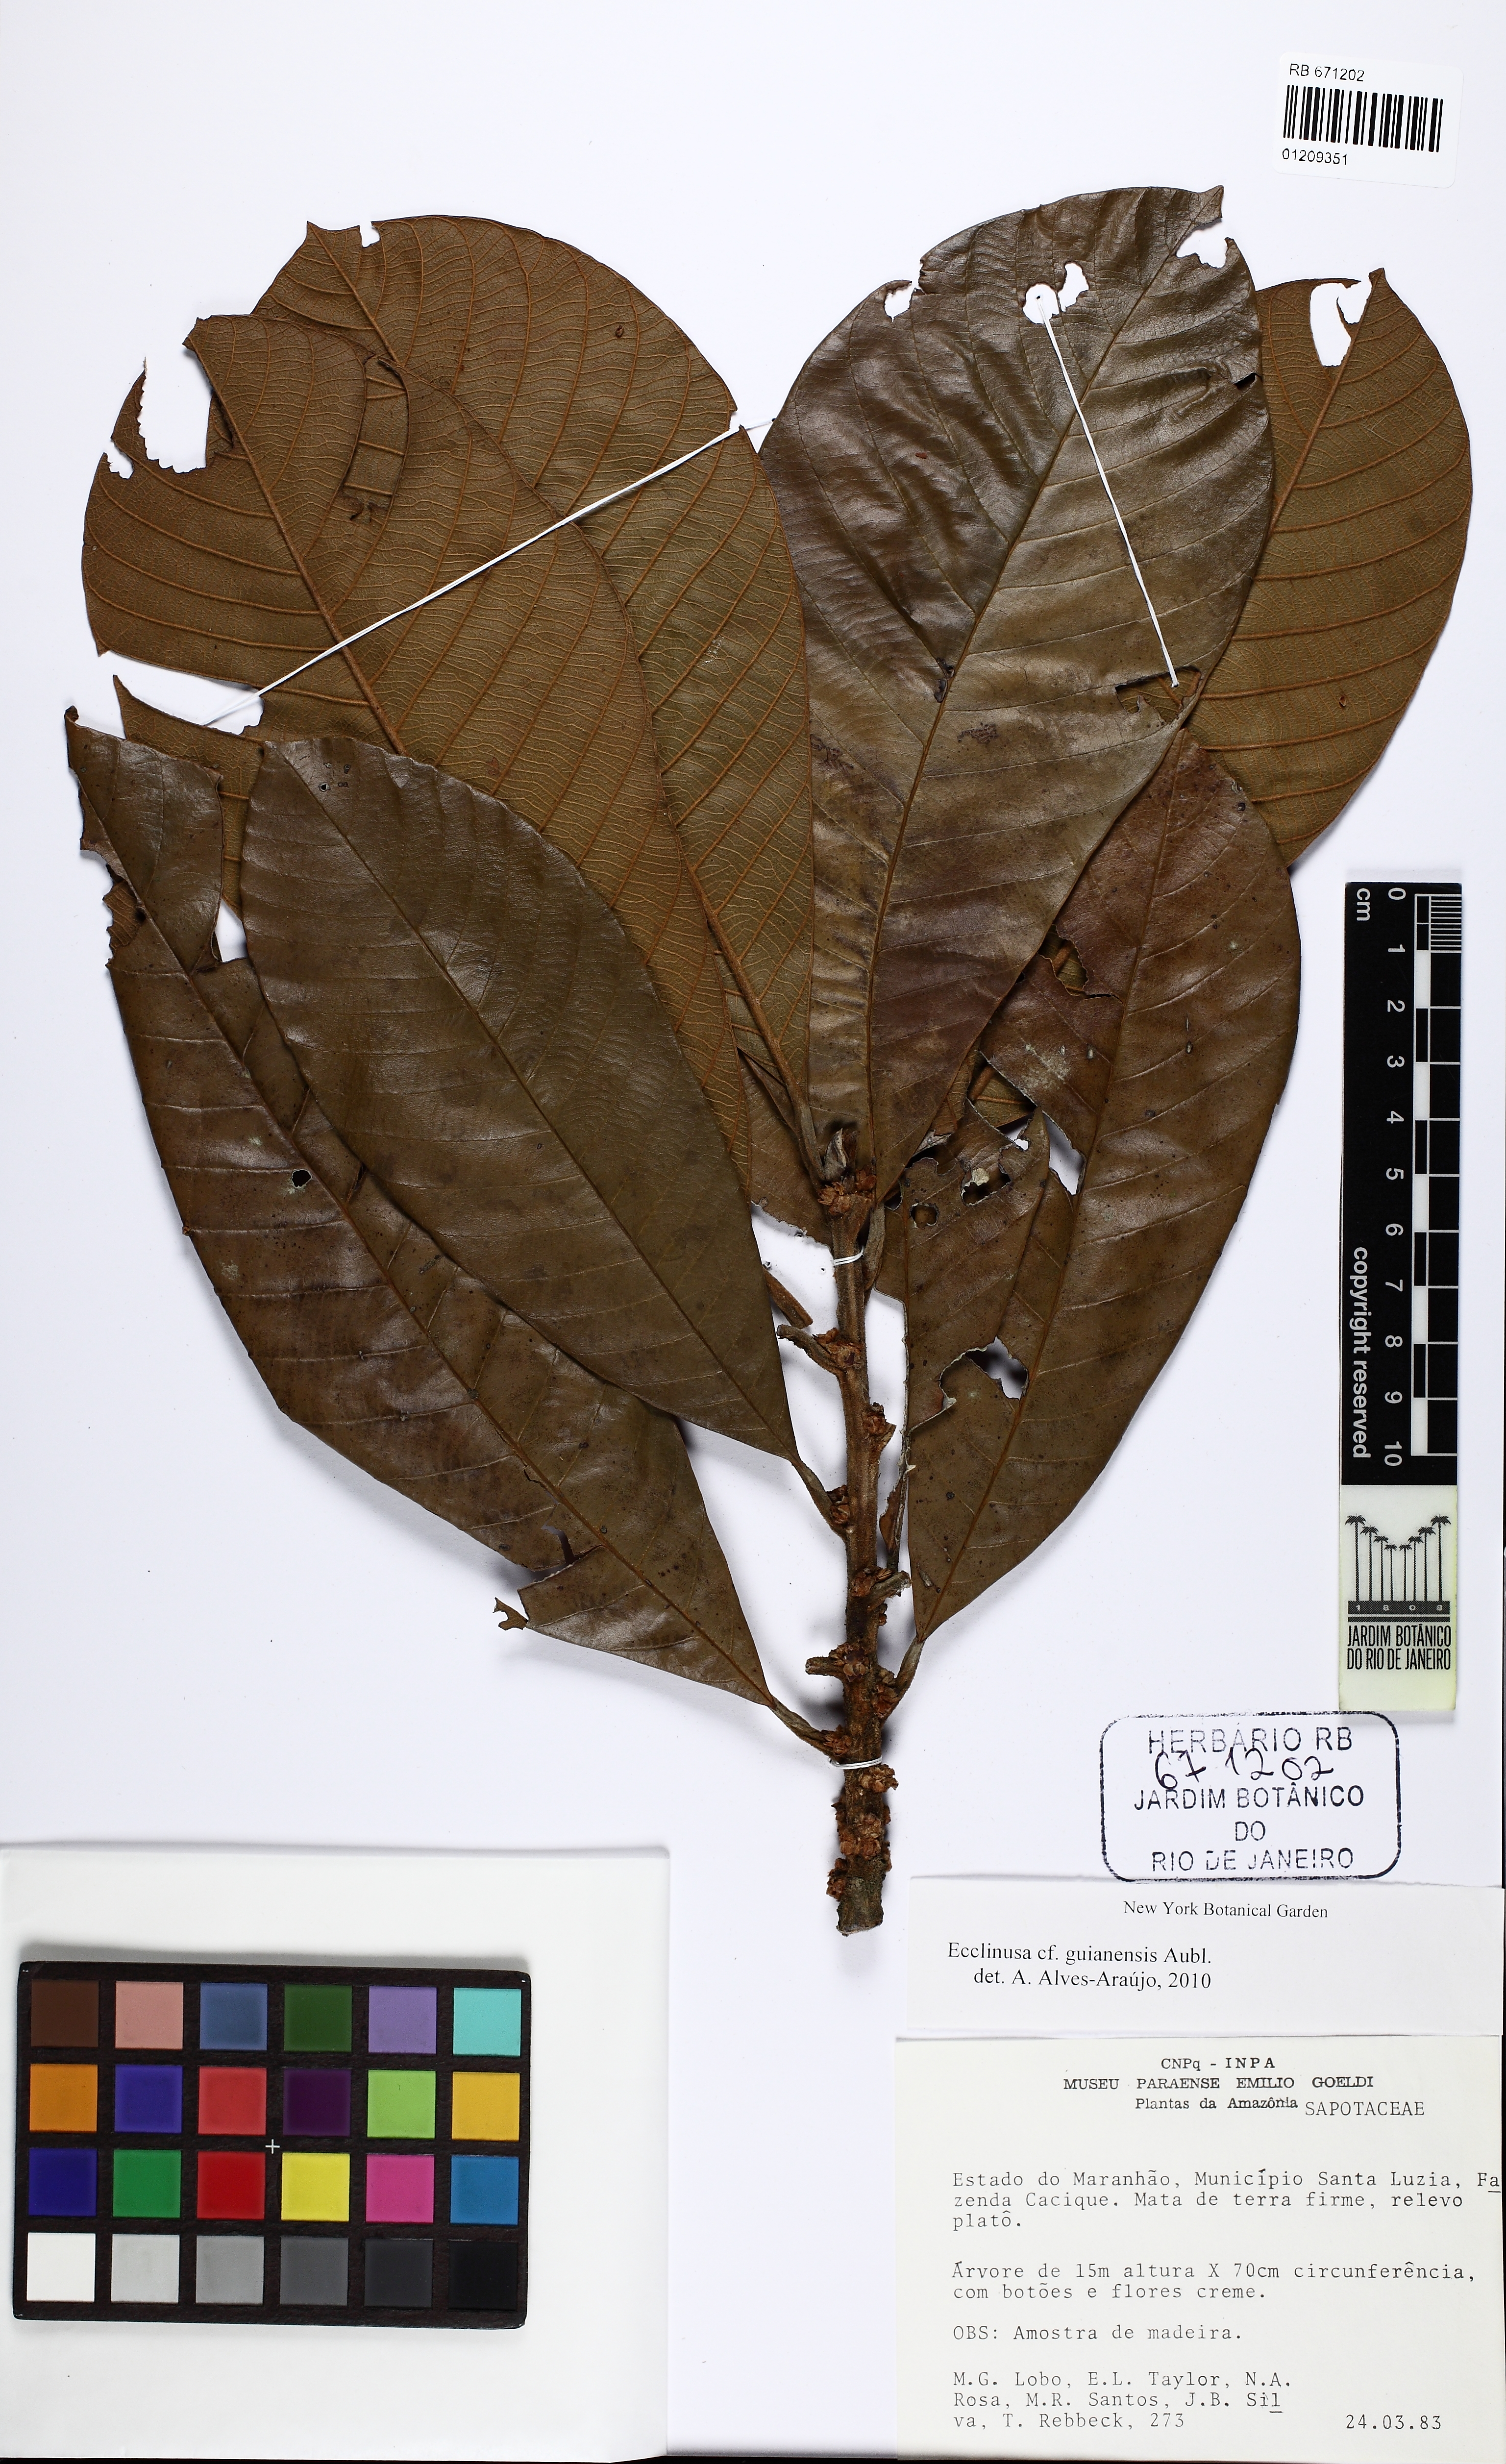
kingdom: Plantae
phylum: Tracheophyta
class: Magnoliopsida
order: Ericales
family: Sapotaceae
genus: Ecclinusa
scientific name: Ecclinusa guianensis
